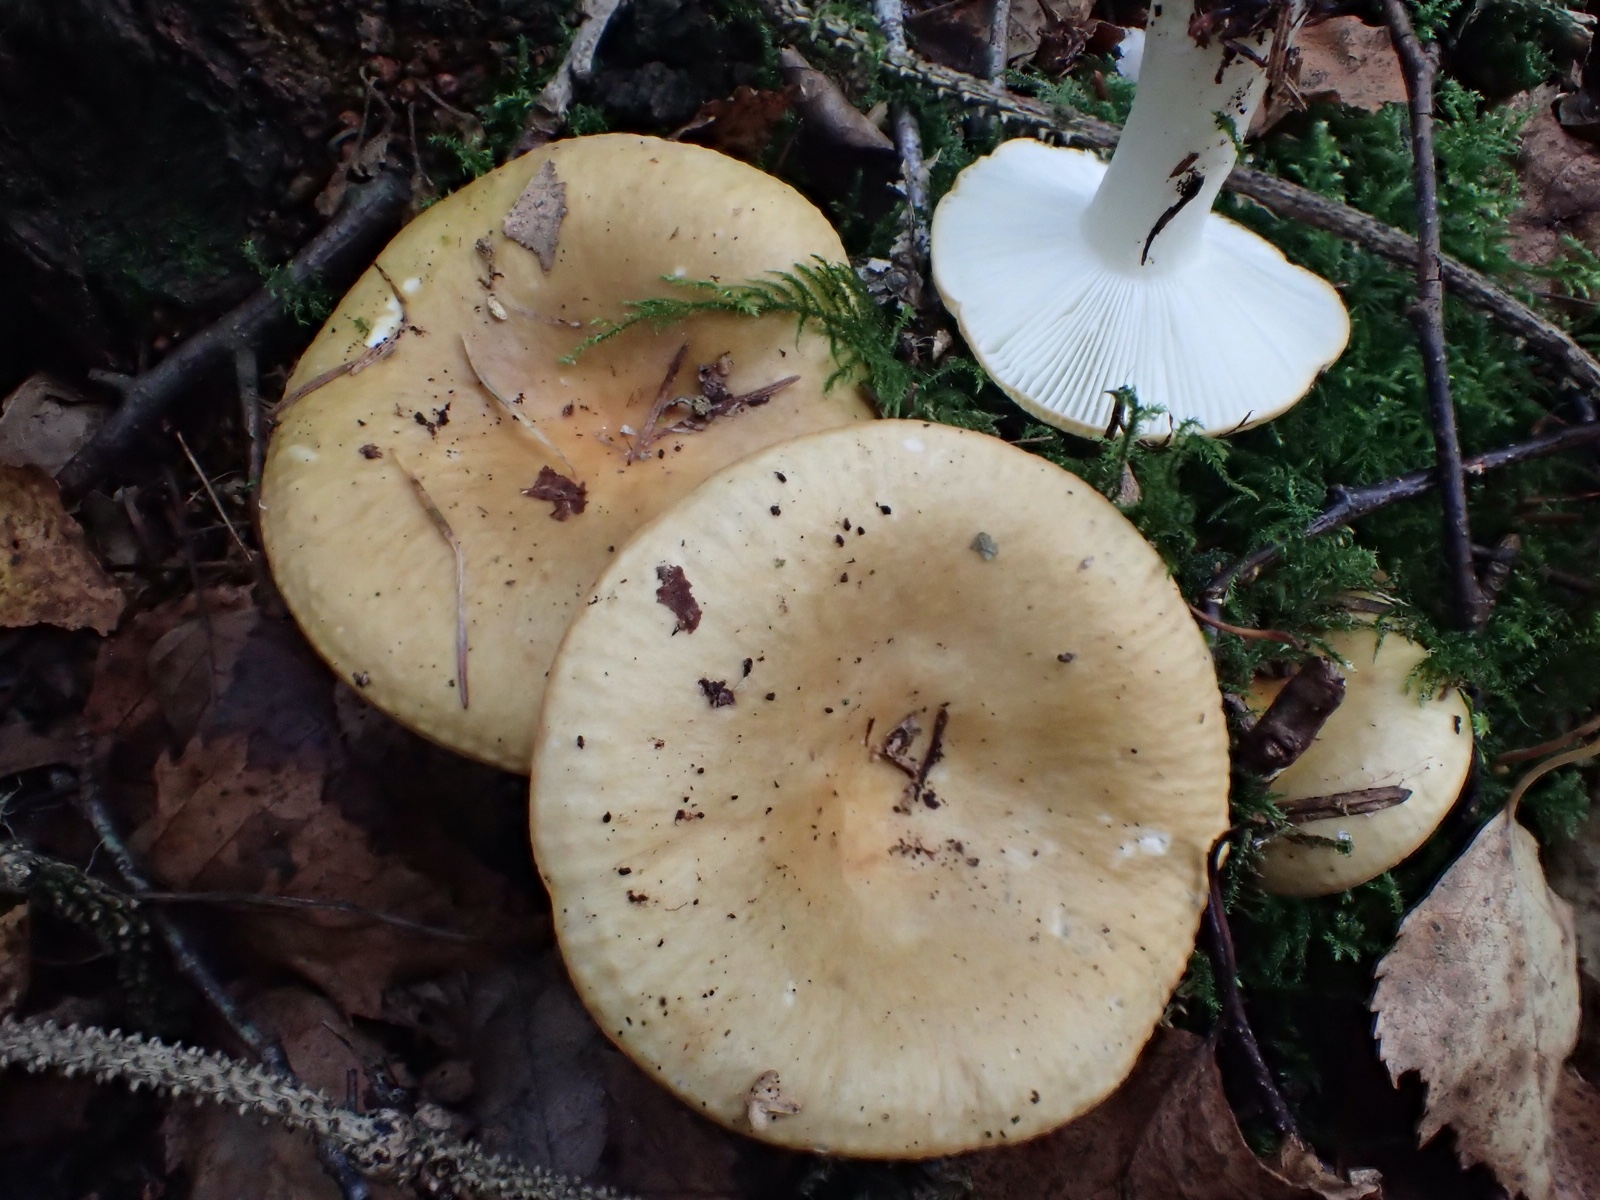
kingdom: Fungi
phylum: Basidiomycota
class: Agaricomycetes
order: Russulales
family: Russulaceae
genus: Russula
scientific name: Russula ochroleuca
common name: okkergul skørhat
